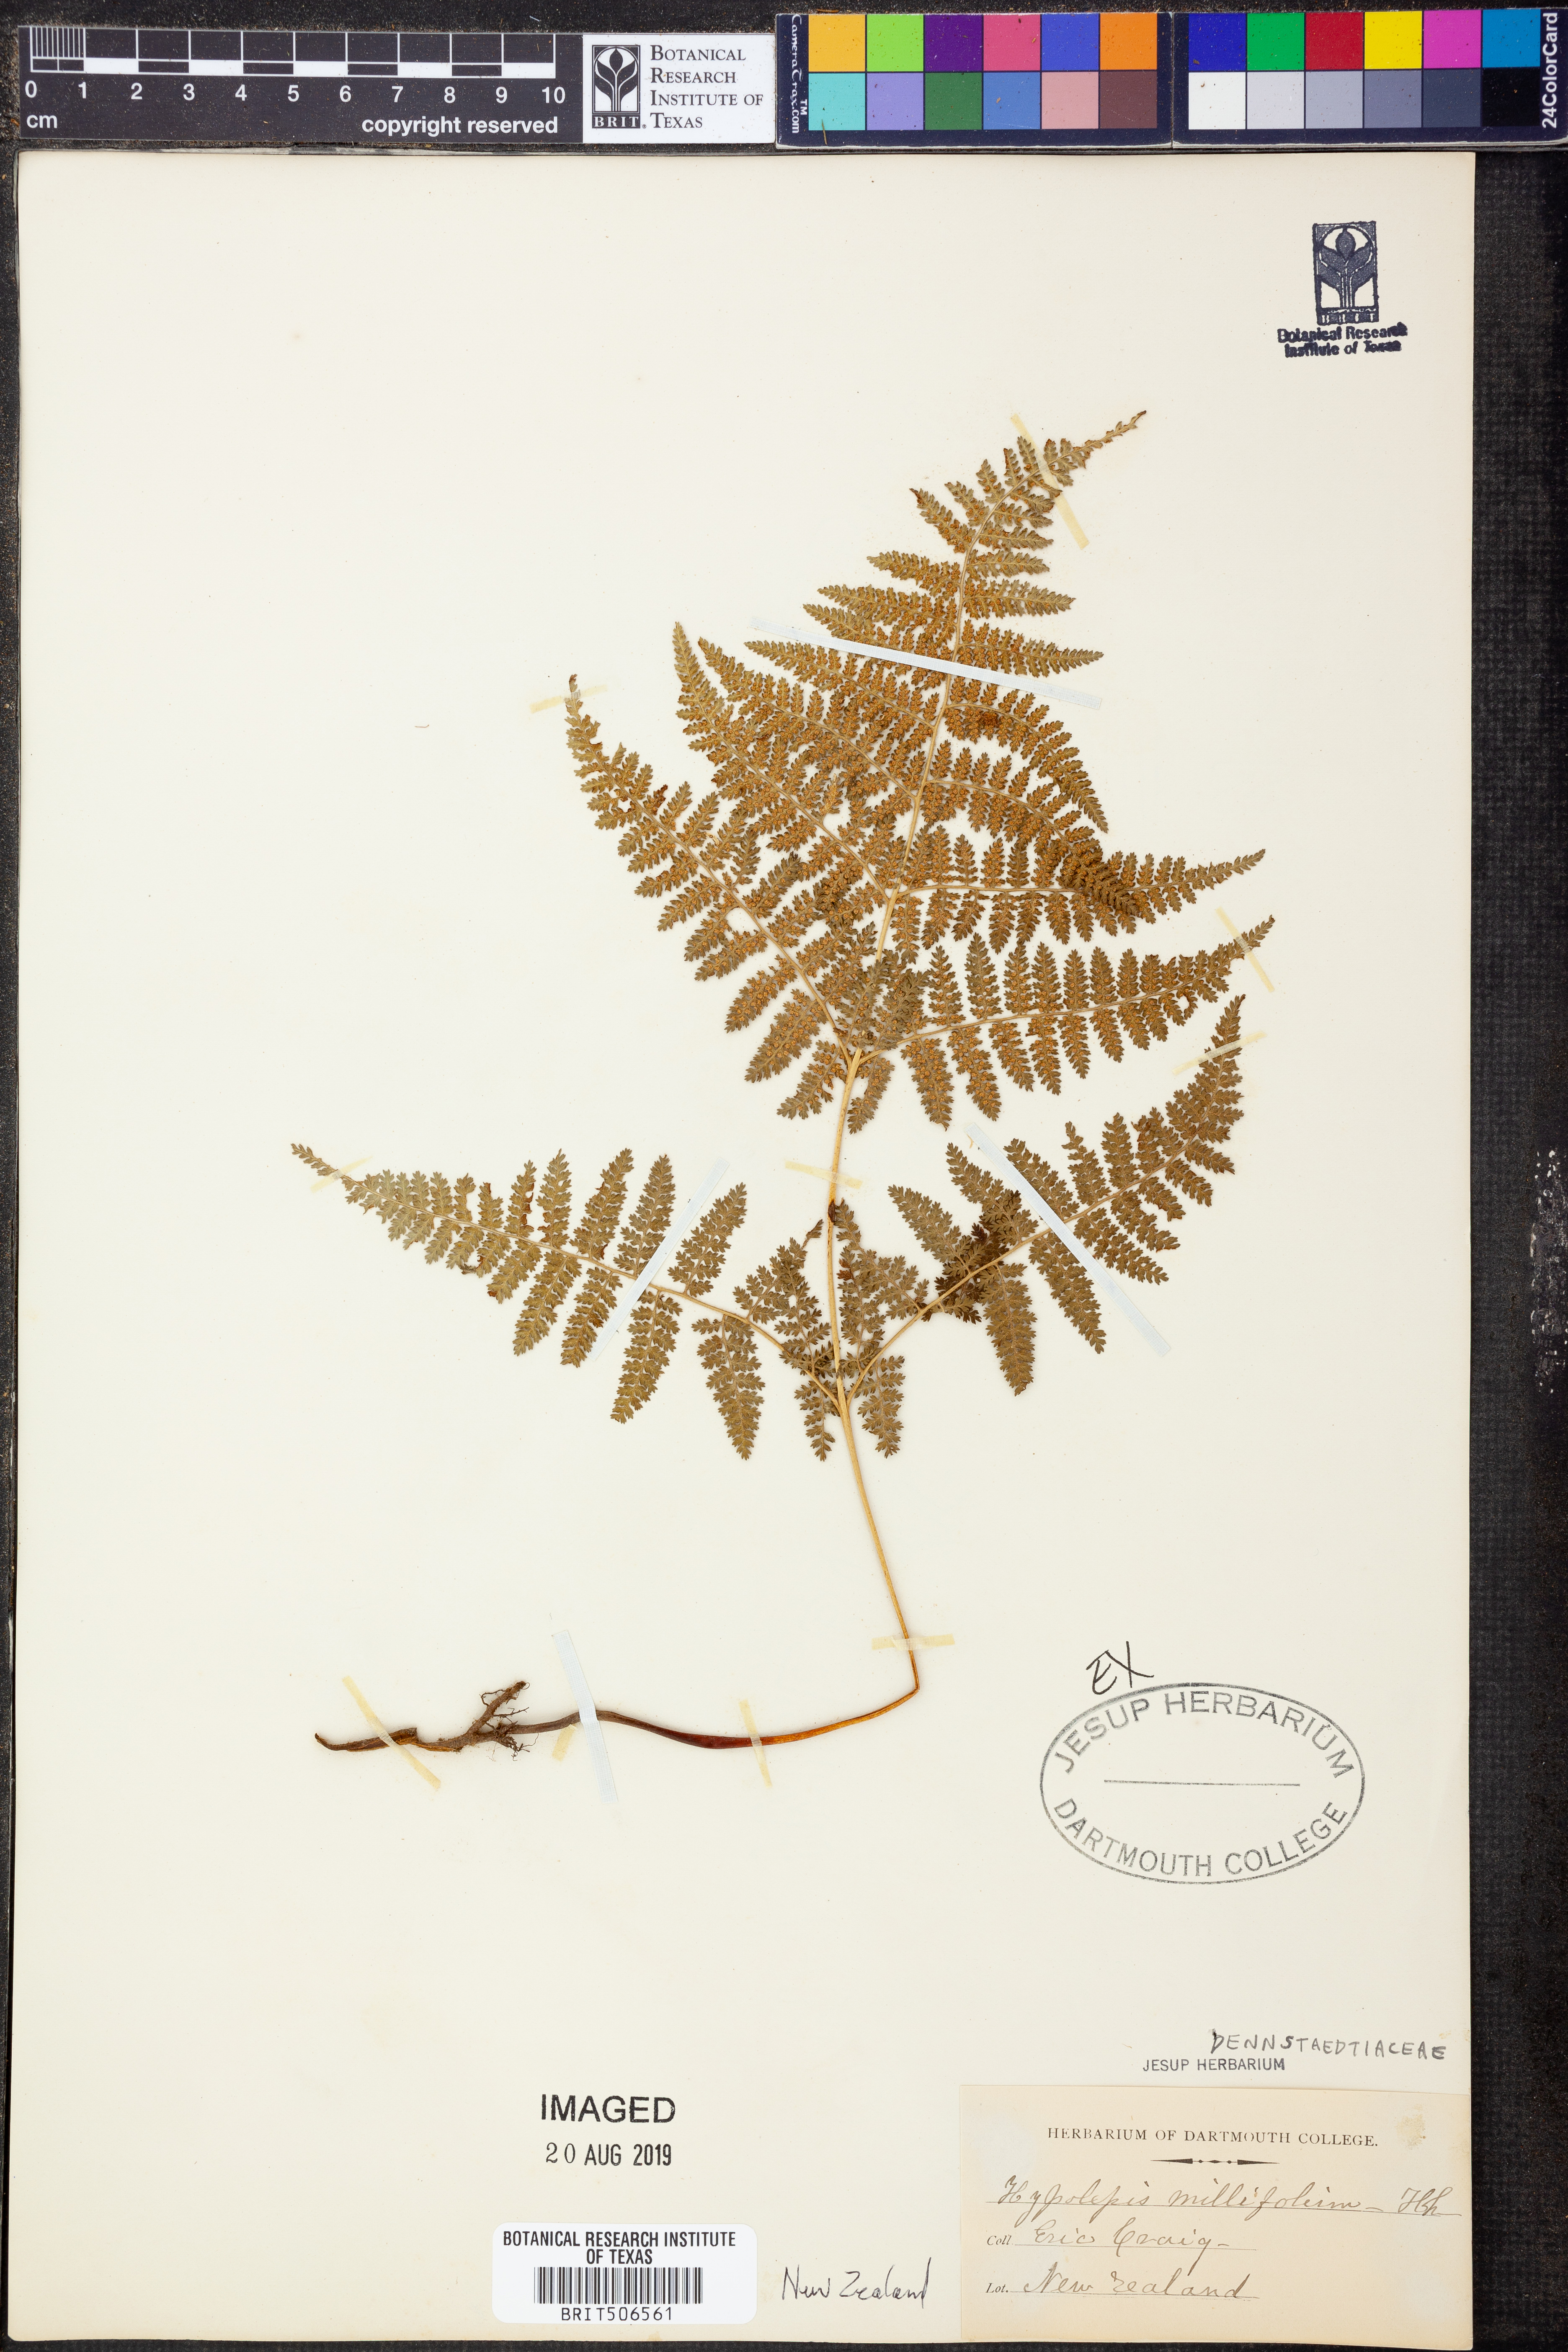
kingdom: Plantae
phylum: Tracheophyta
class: Polypodiopsida
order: Polypodiales
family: Dennstaedtiaceae
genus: Hypolepis
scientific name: Hypolepis millefolium
